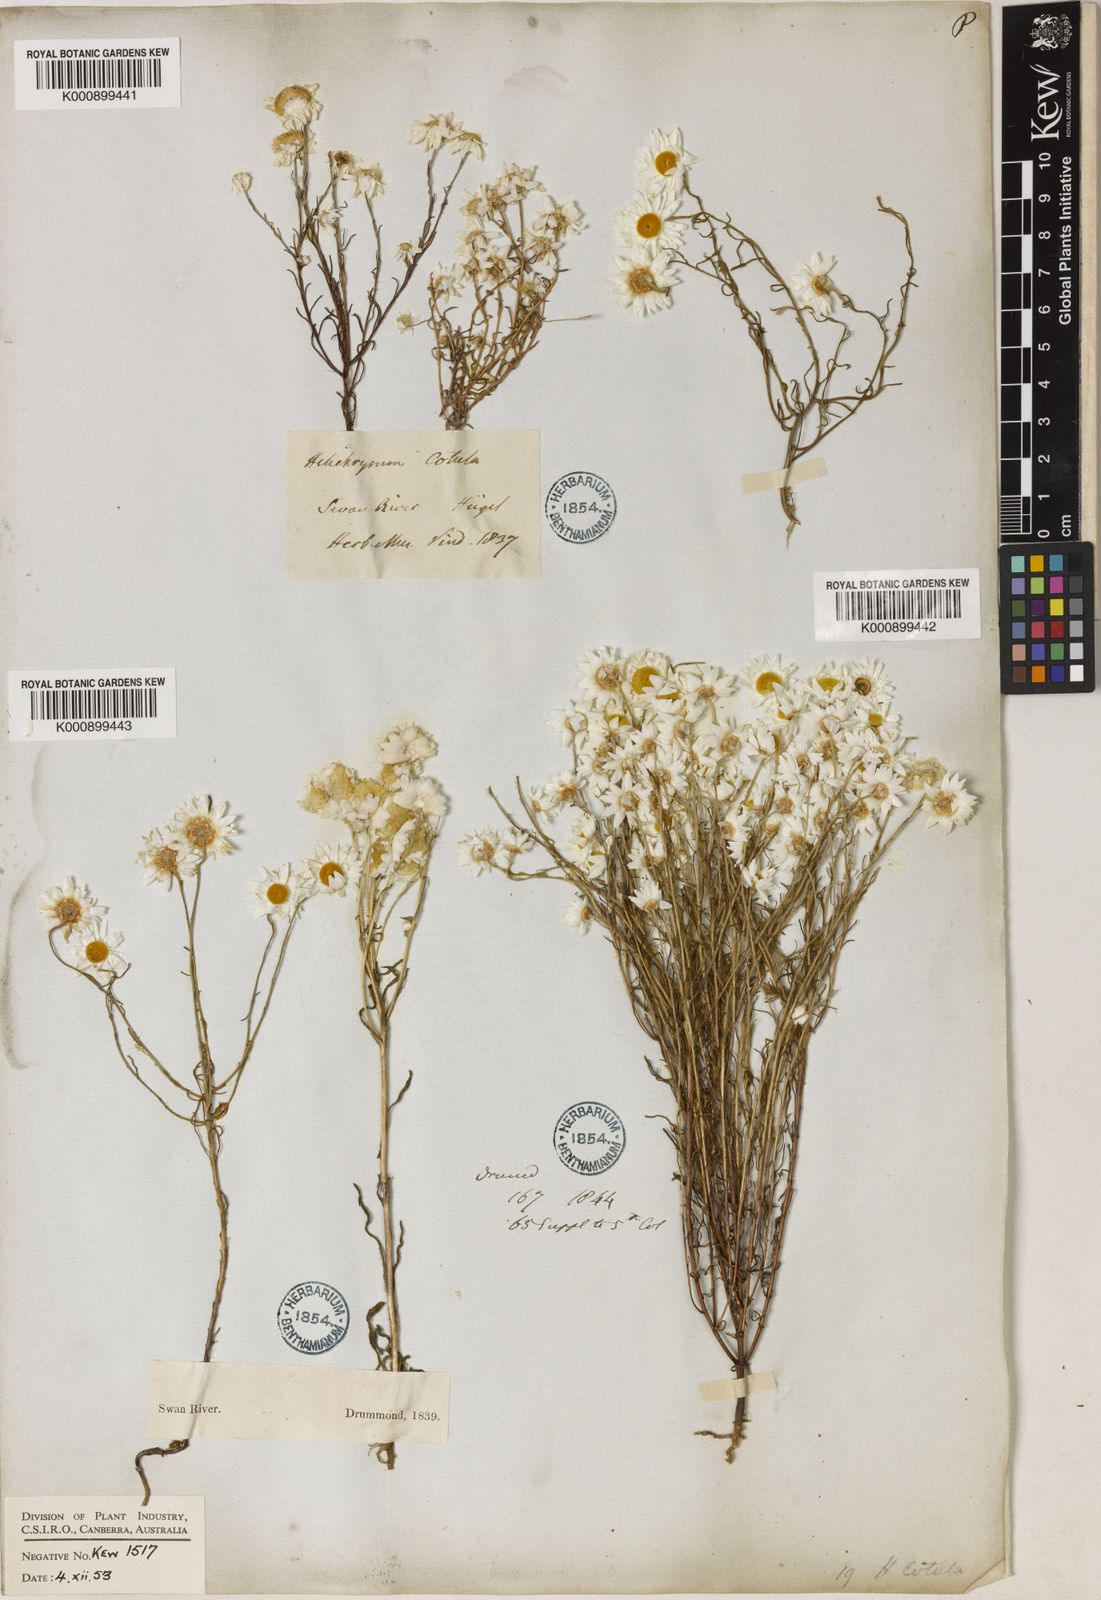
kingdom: Plantae
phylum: Tracheophyta
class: Magnoliopsida
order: Asterales
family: Asteraceae
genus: Hyalosperma
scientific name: Hyalosperma cotula
